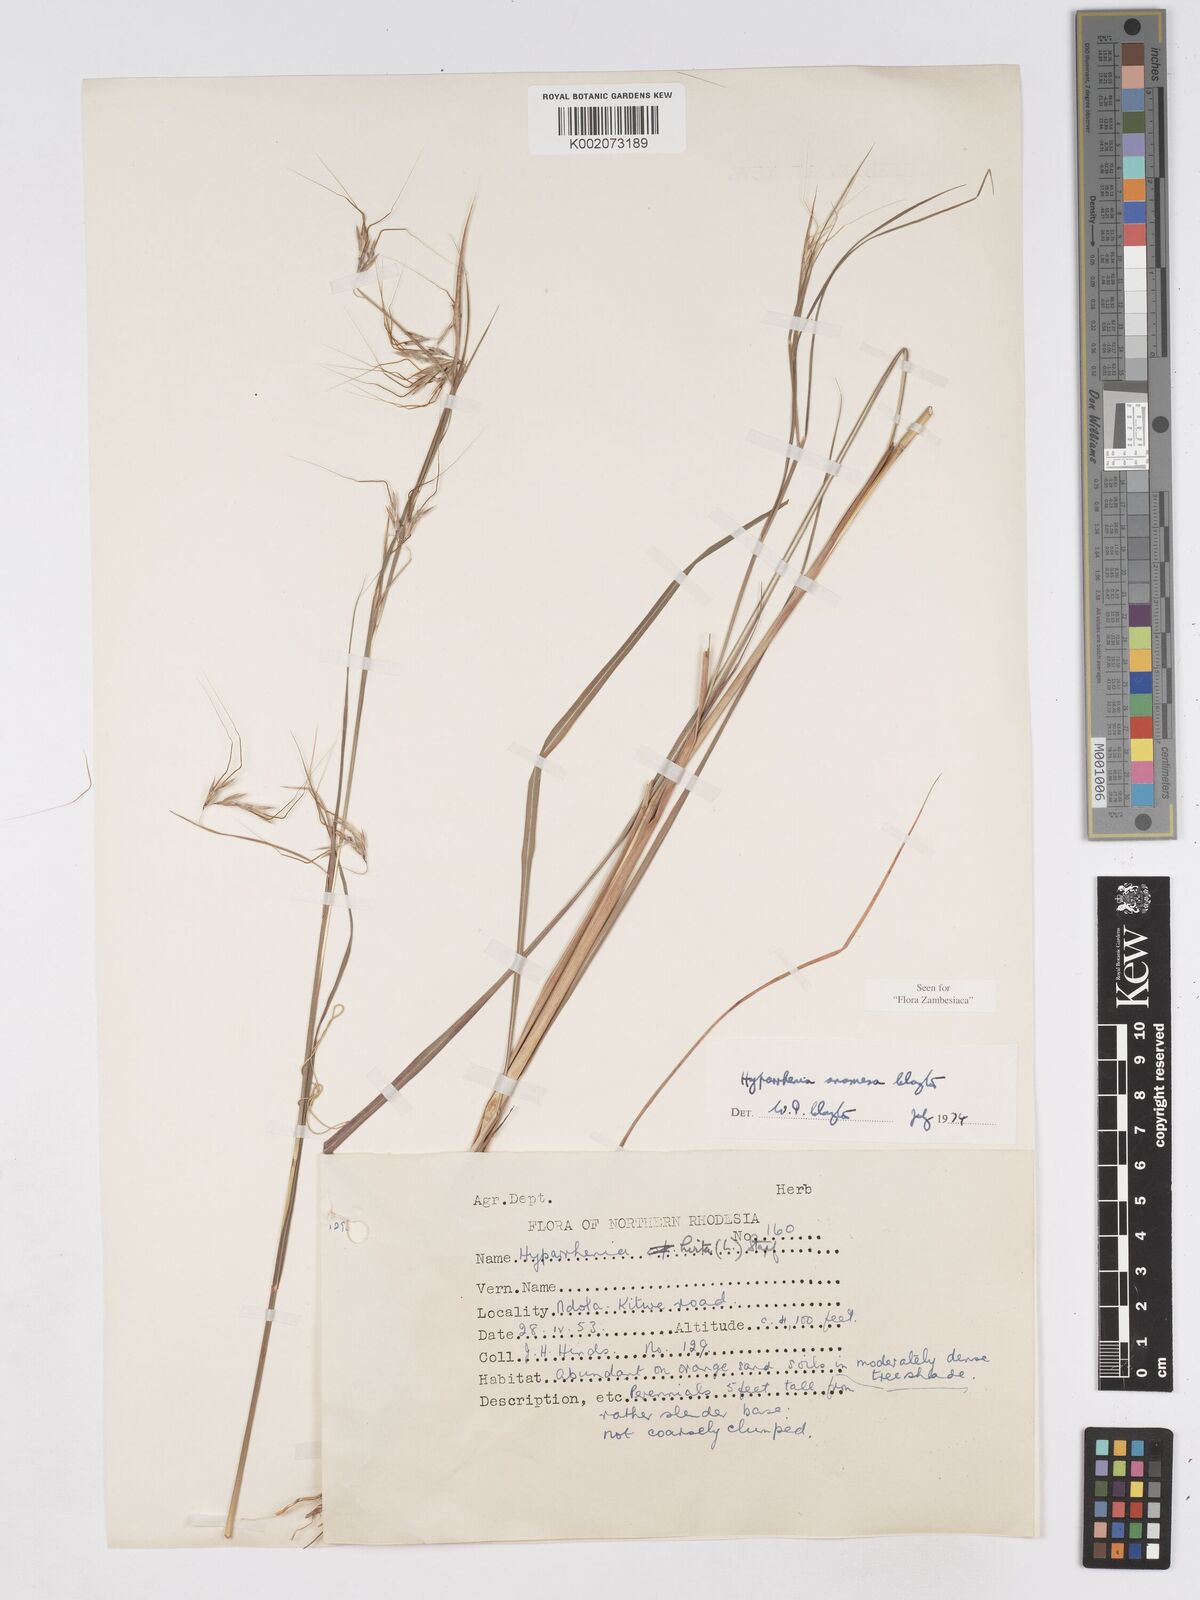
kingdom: Plantae
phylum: Tracheophyta
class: Liliopsida
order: Poales
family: Poaceae
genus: Hyparrhenia
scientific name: Hyparrhenia anamesa
